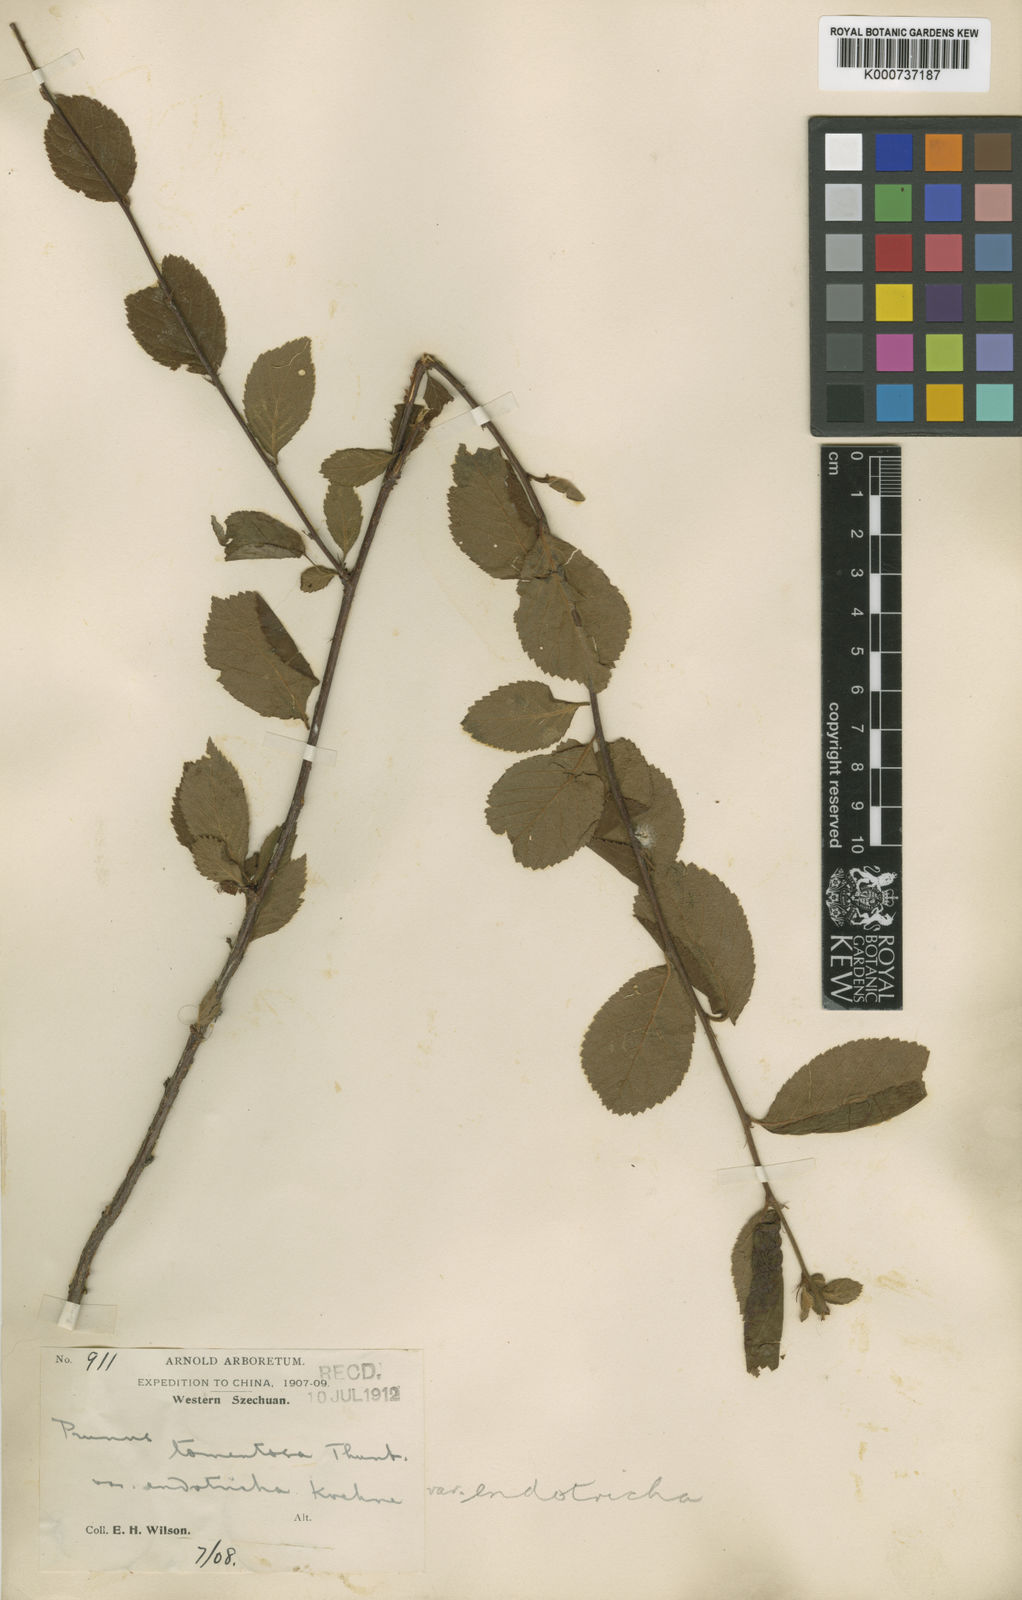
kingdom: Plantae
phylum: Tracheophyta
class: Magnoliopsida
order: Rosales
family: Rosaceae
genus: Prunus
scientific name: Prunus tomentosa
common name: Nanking cherry
